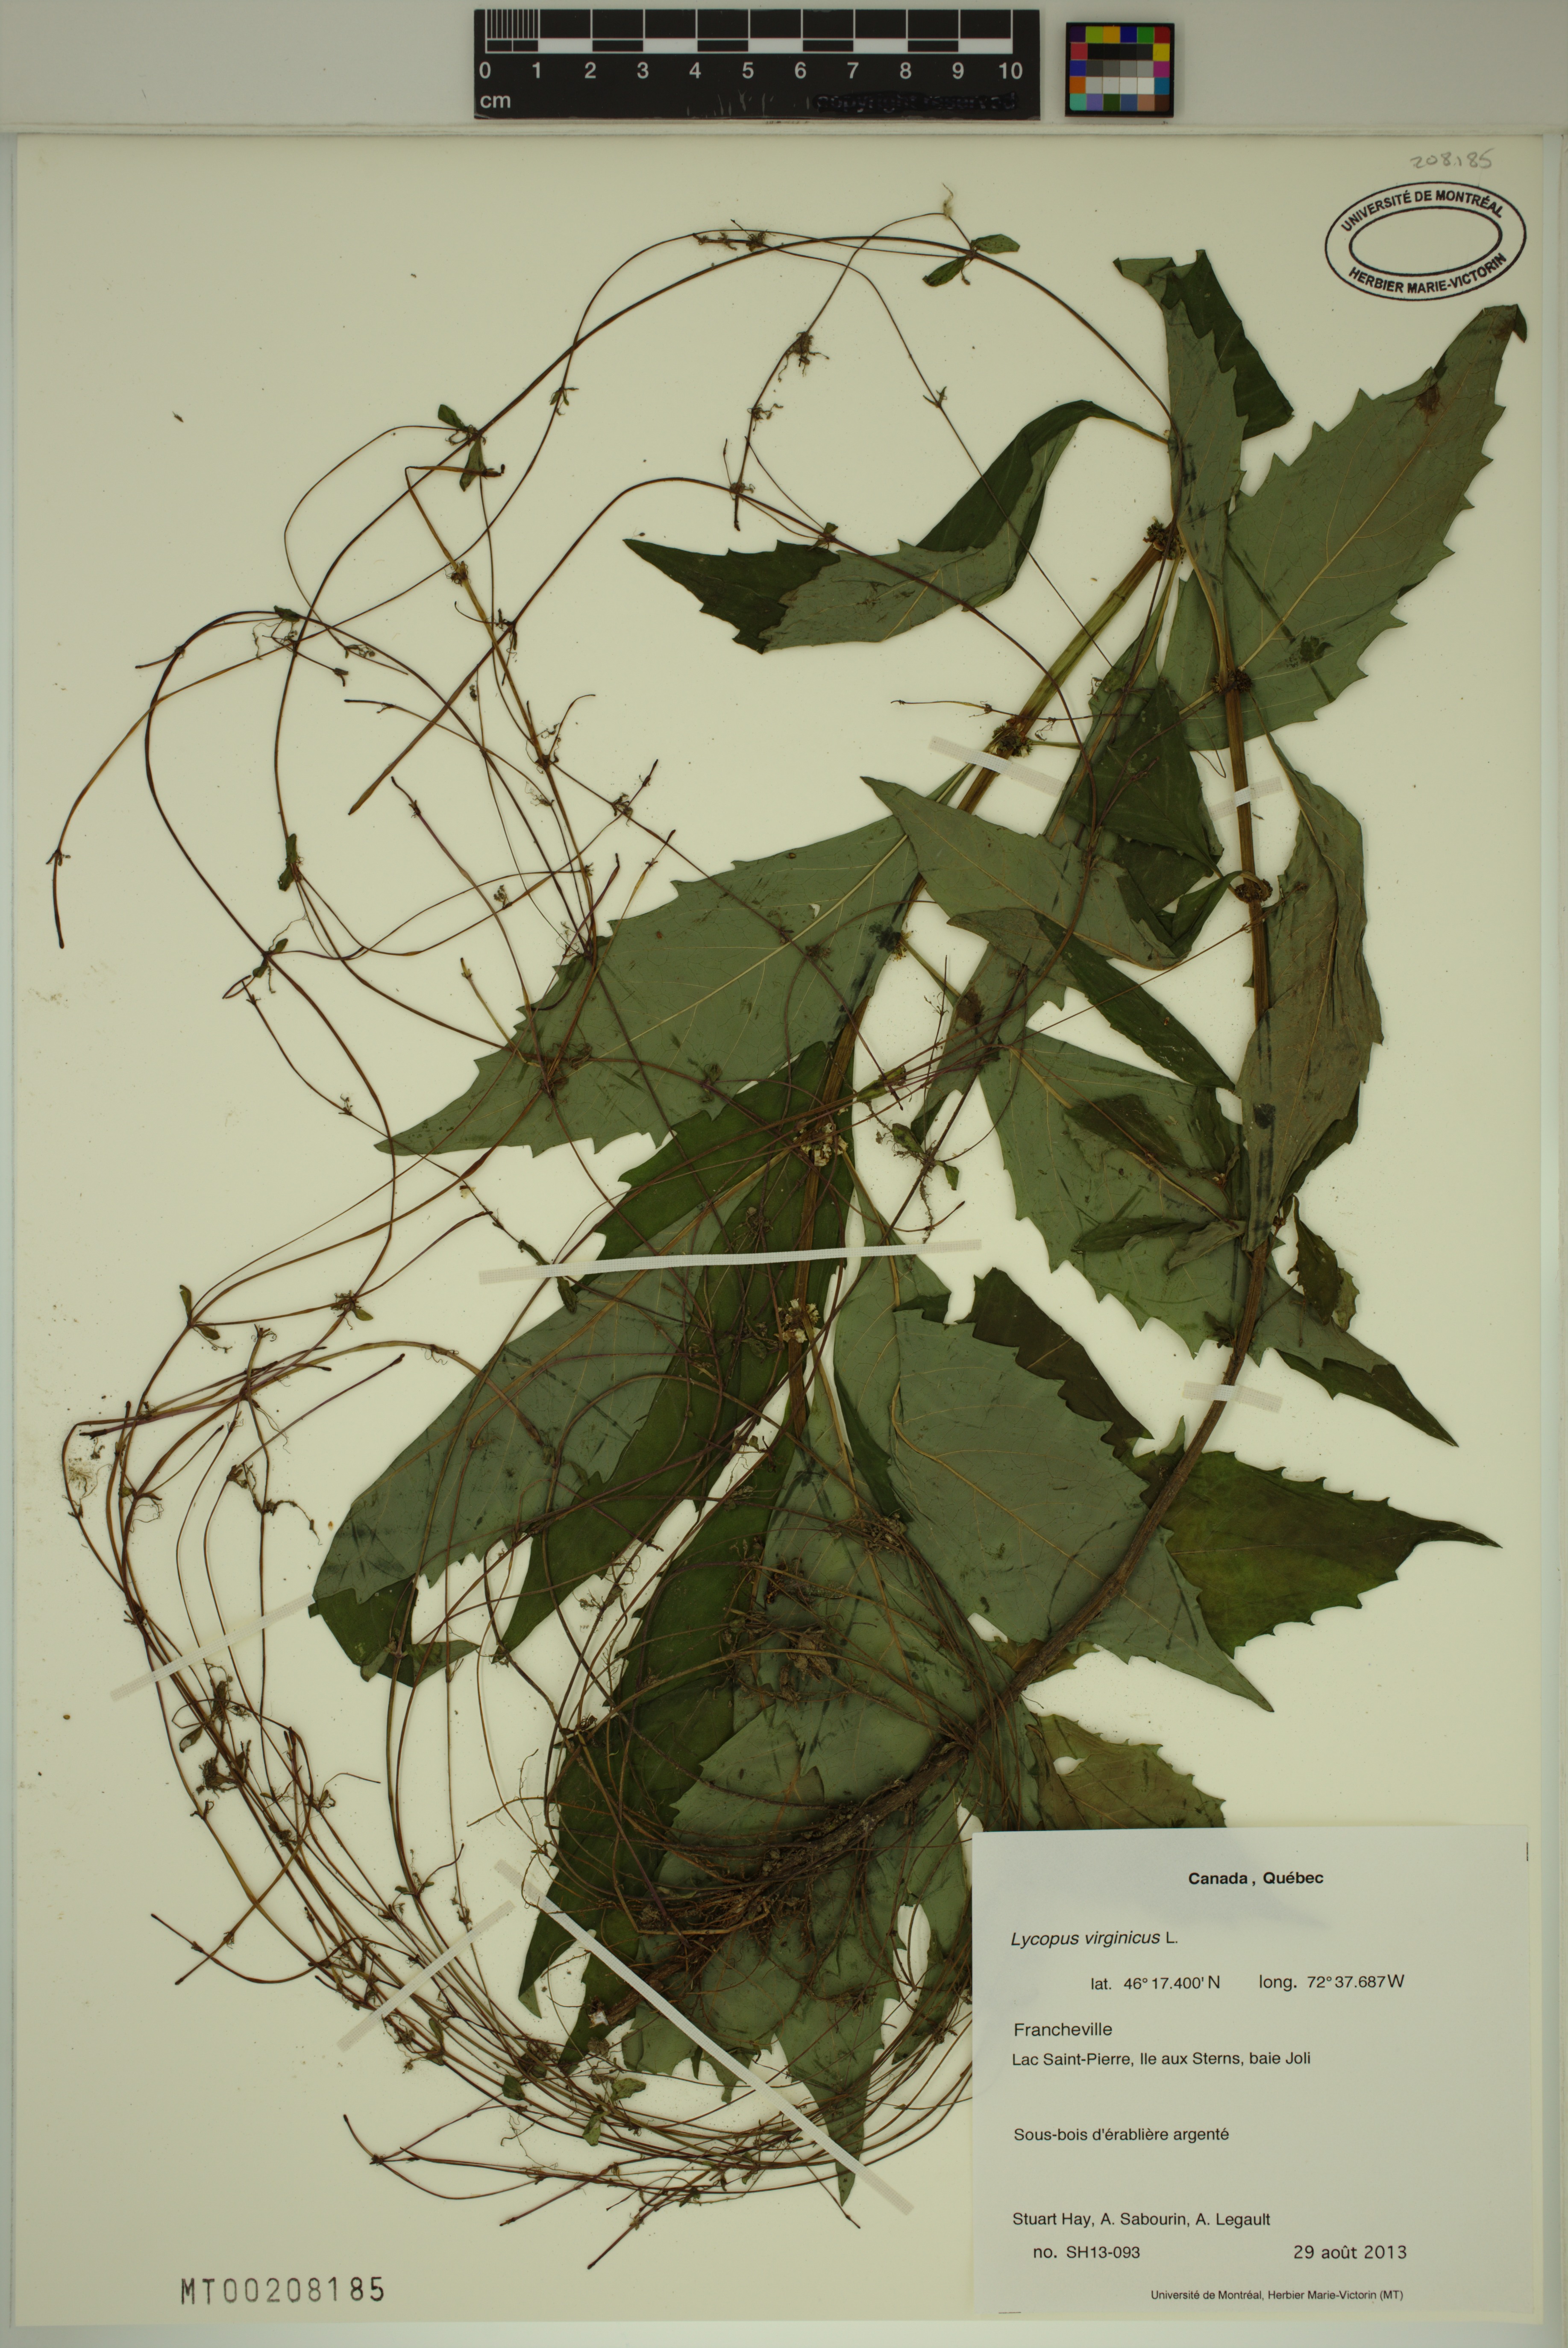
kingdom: Plantae
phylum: Tracheophyta
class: Magnoliopsida
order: Lamiales
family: Lamiaceae
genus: Lycopus
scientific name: Lycopus virginicus
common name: Bugleweed
